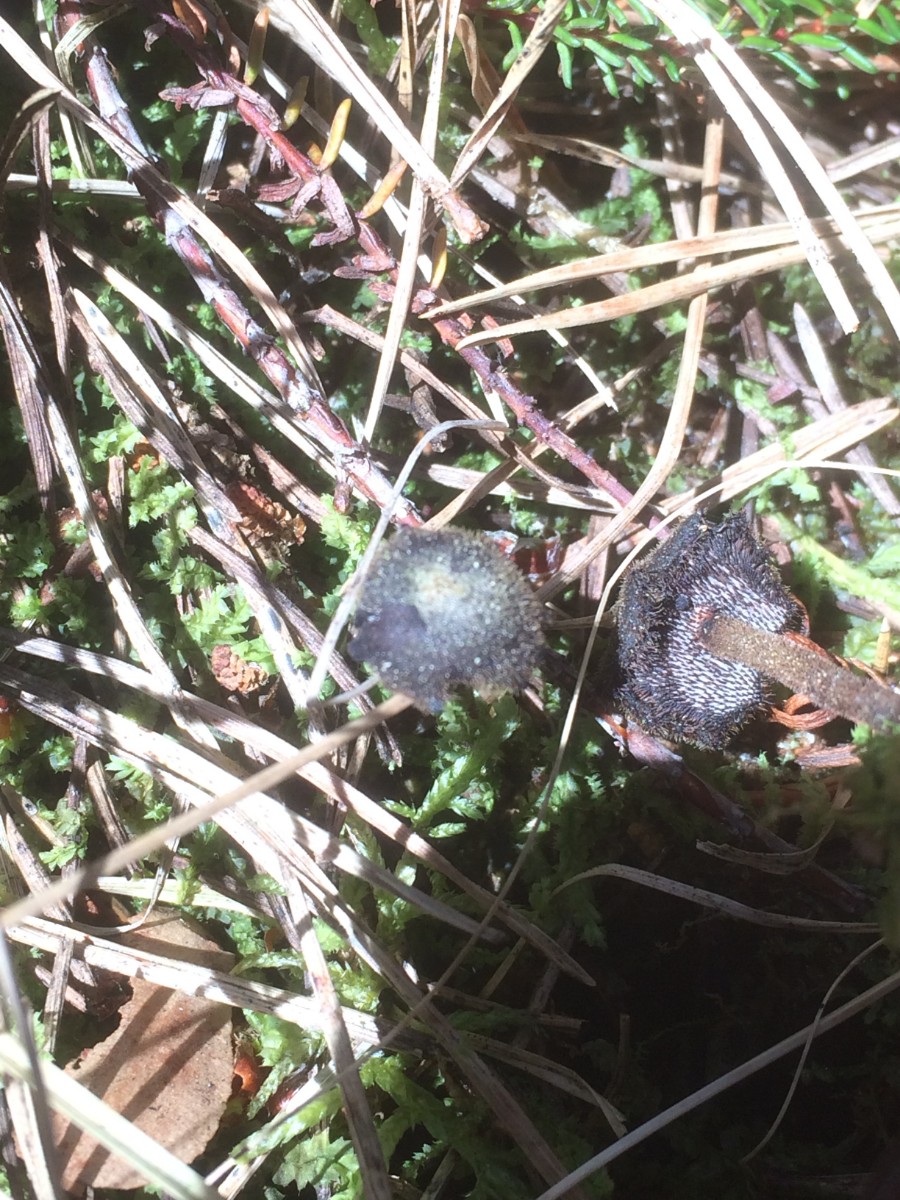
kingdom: Fungi
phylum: Basidiomycota
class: Agaricomycetes
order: Russulales
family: Auriscalpiaceae
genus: Auriscalpium
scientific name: Auriscalpium vulgare
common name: koglepigsvamp
